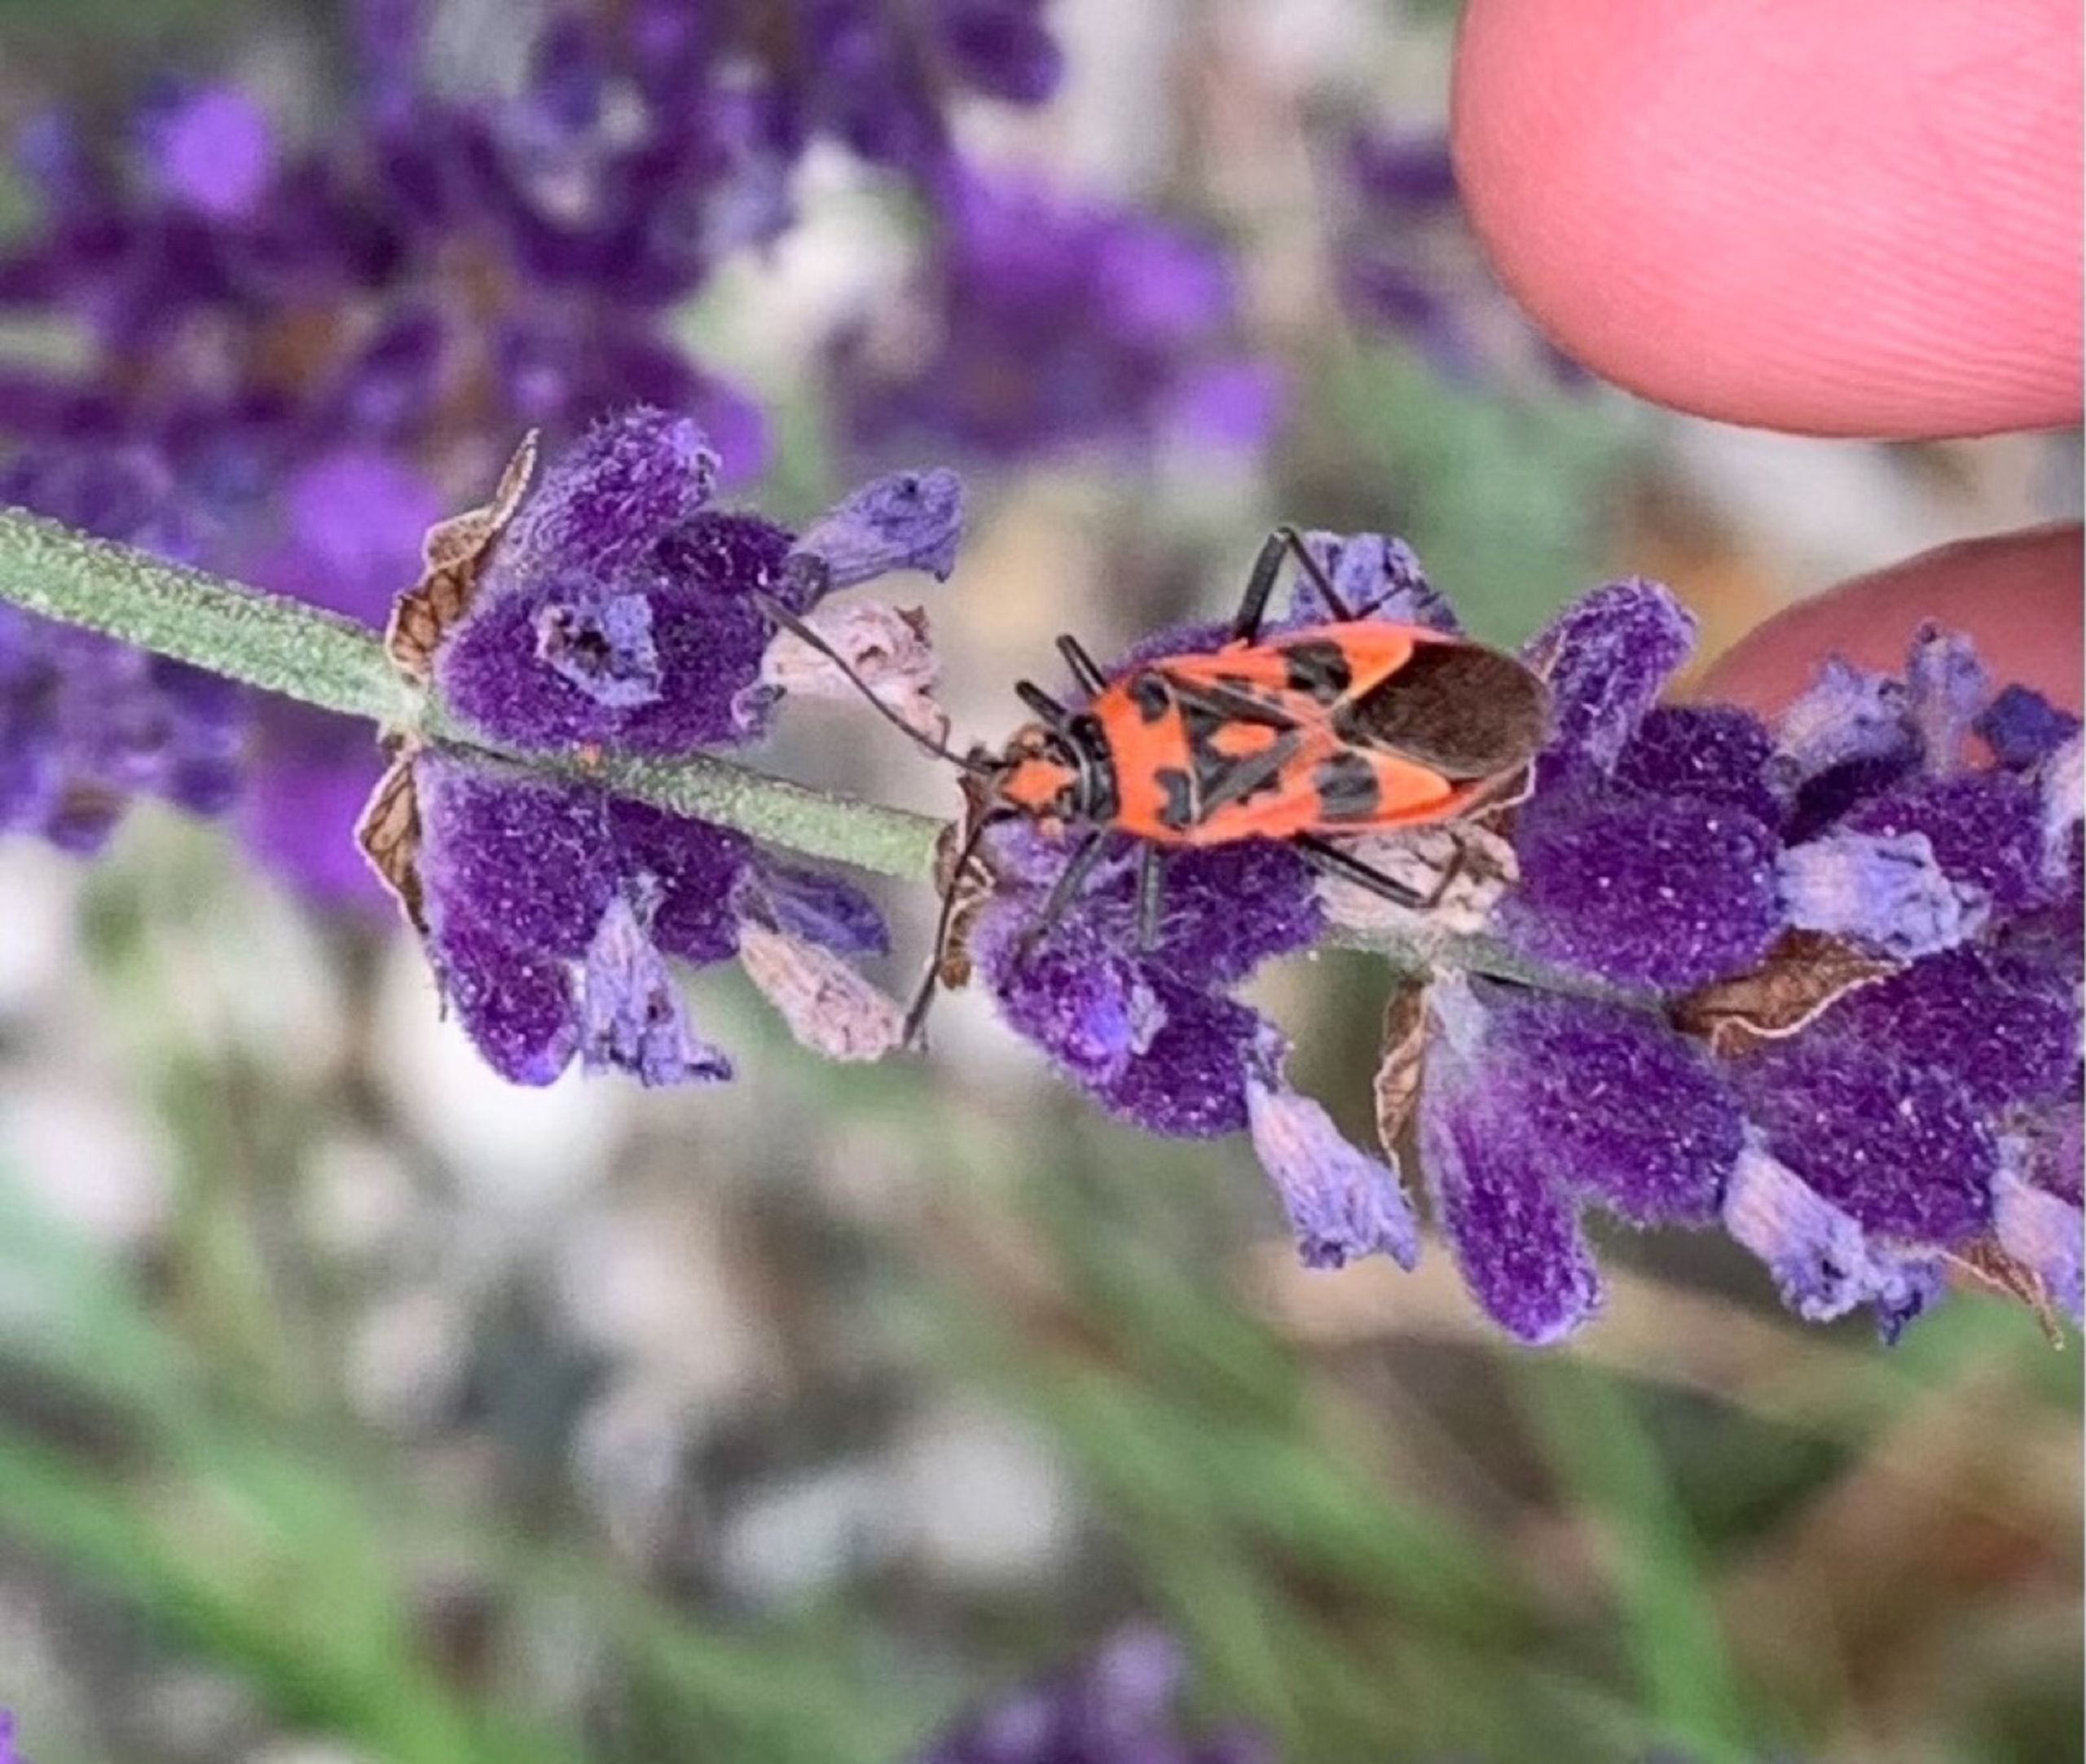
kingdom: Animalia
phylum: Arthropoda
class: Insecta
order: Hemiptera
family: Rhopalidae
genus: Corizus
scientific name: Corizus hyoscyami
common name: Rød kanttæge
